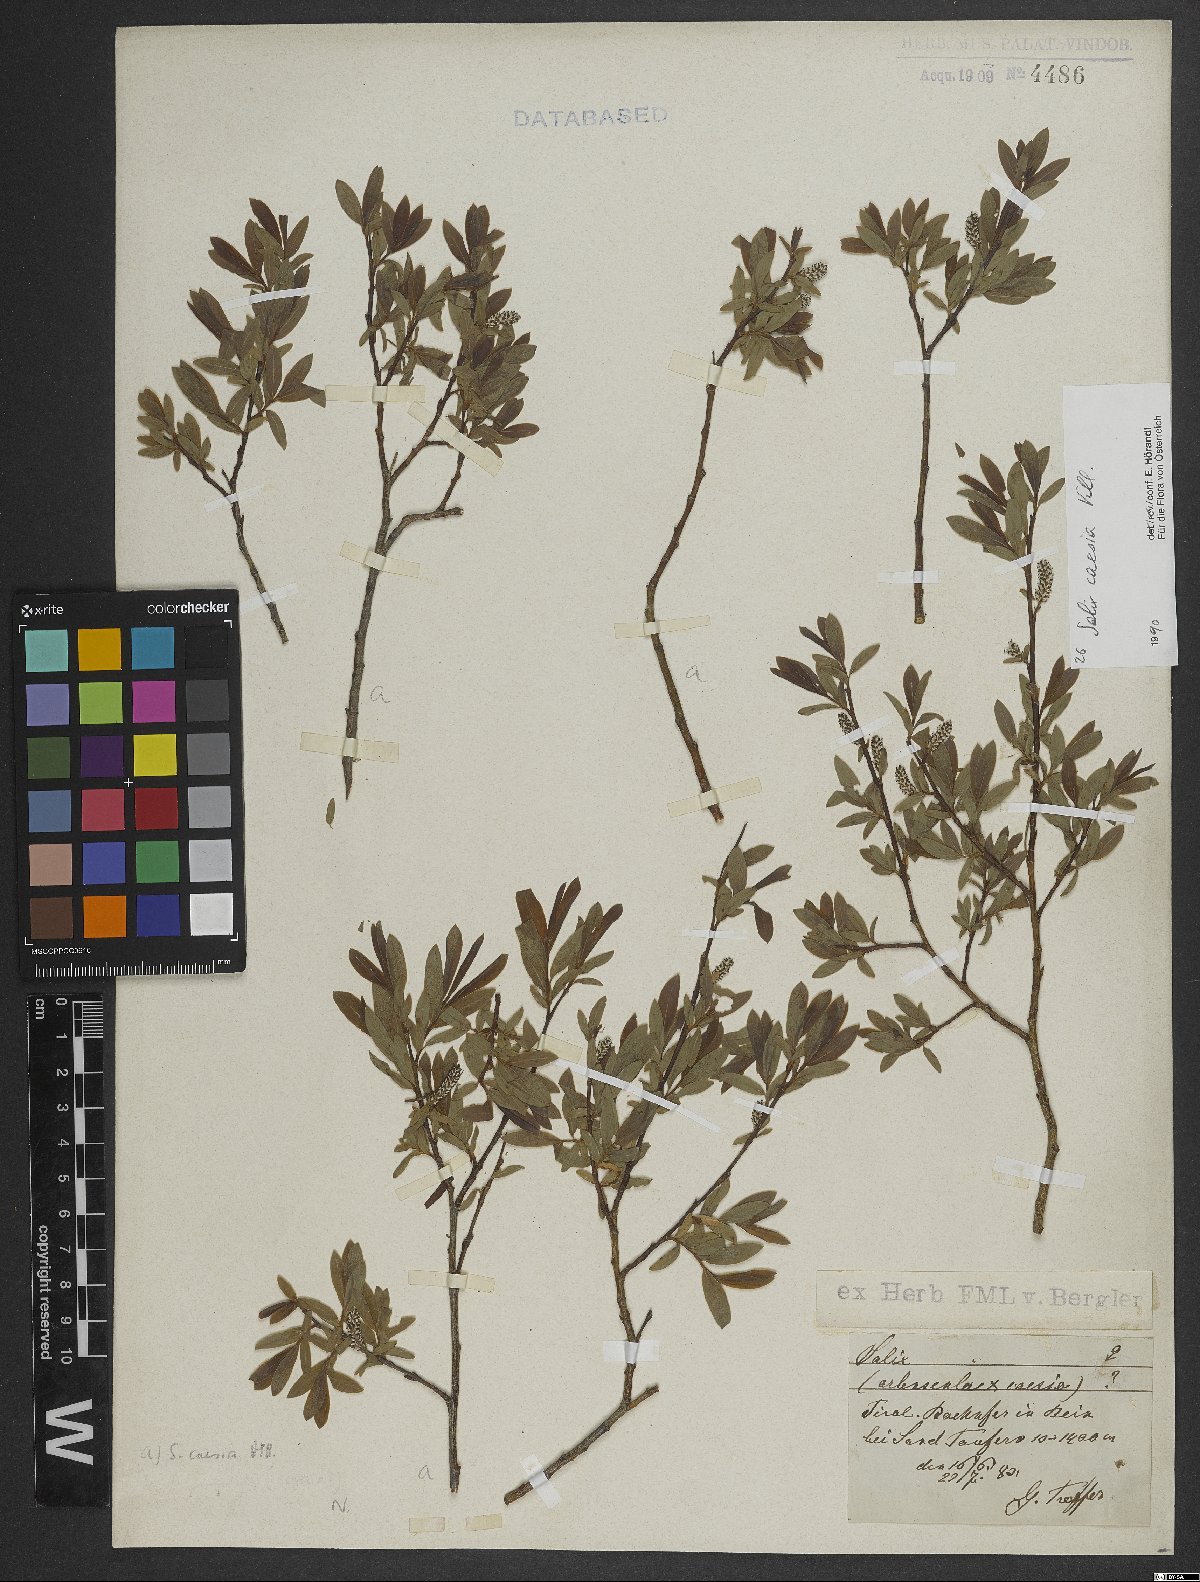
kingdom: Plantae
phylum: Tracheophyta
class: Magnoliopsida
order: Malpighiales
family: Salicaceae
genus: Salix
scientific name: Salix caesia
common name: Blue willow
